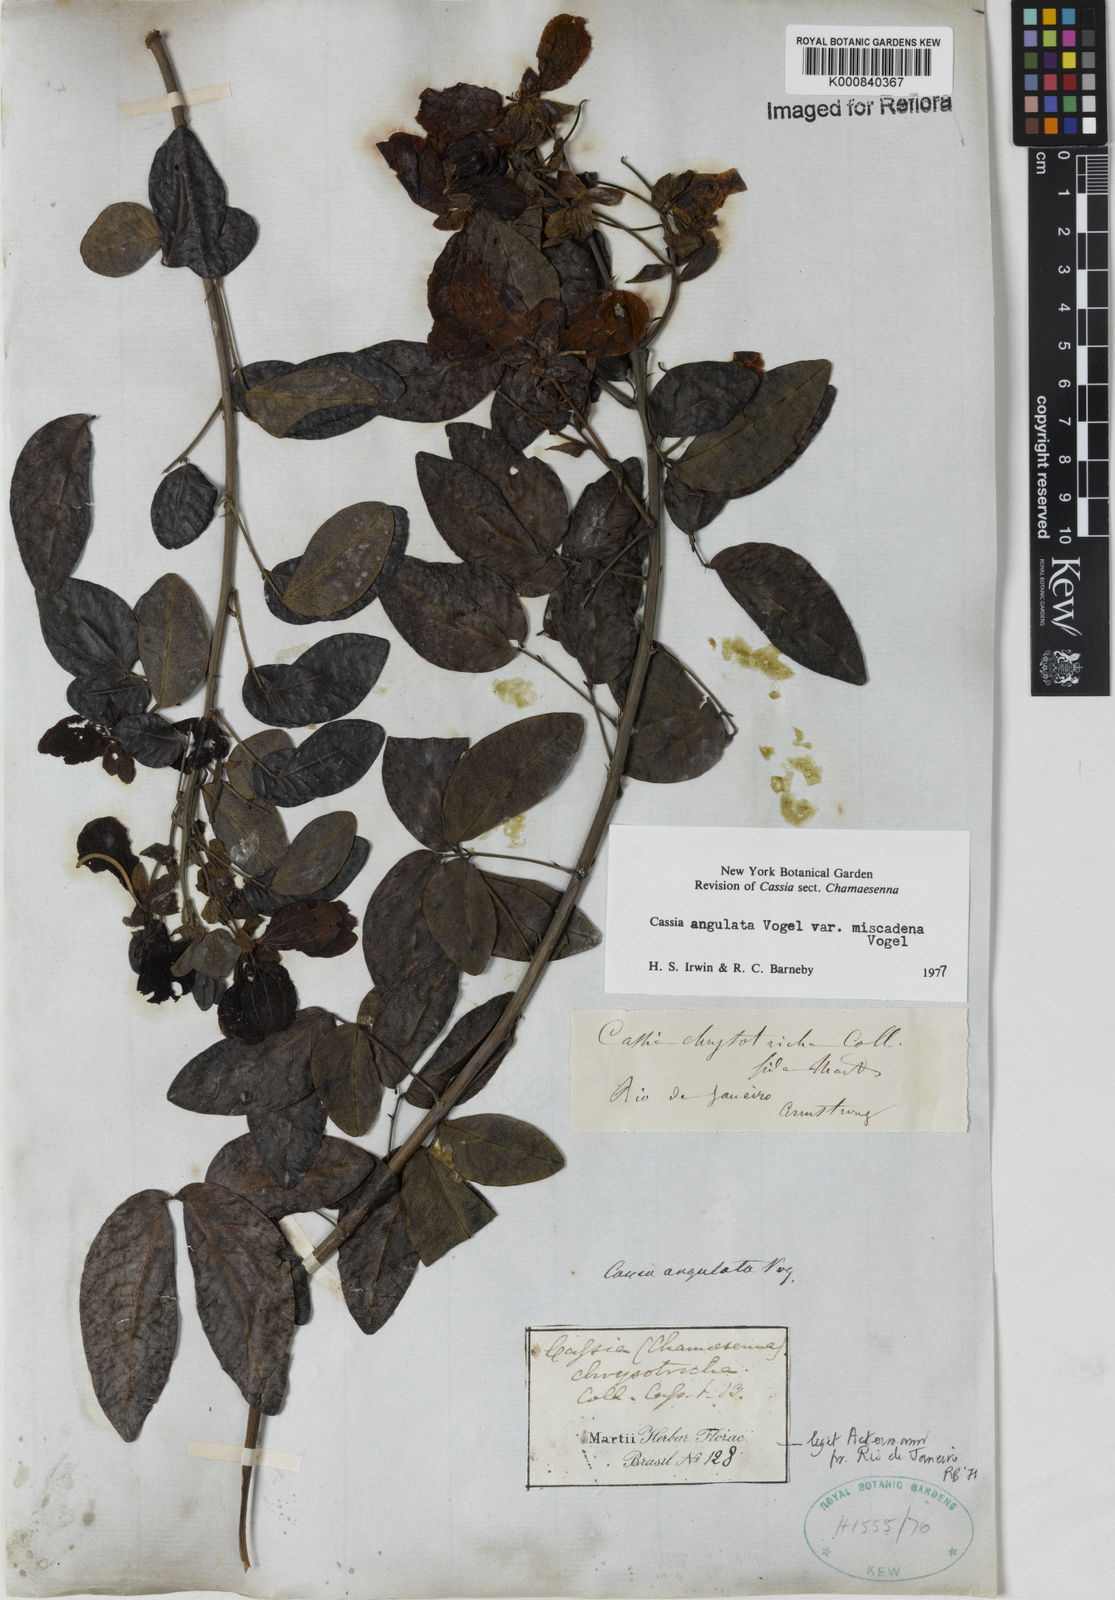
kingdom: Plantae
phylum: Tracheophyta
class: Magnoliopsida
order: Fabales
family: Fabaceae
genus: Senna
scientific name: Senna angulata
